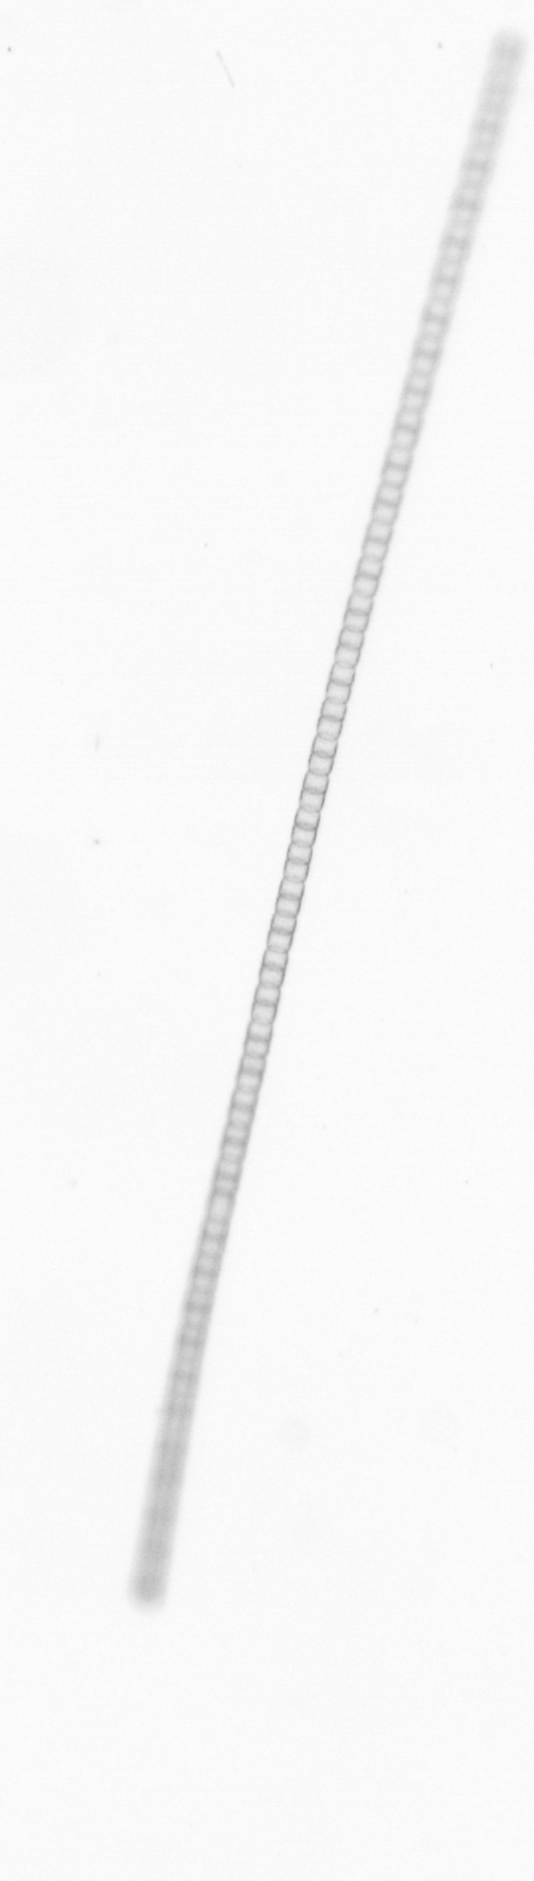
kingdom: Chromista
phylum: Ochrophyta
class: Bacillariophyceae
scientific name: Bacillariophyceae
